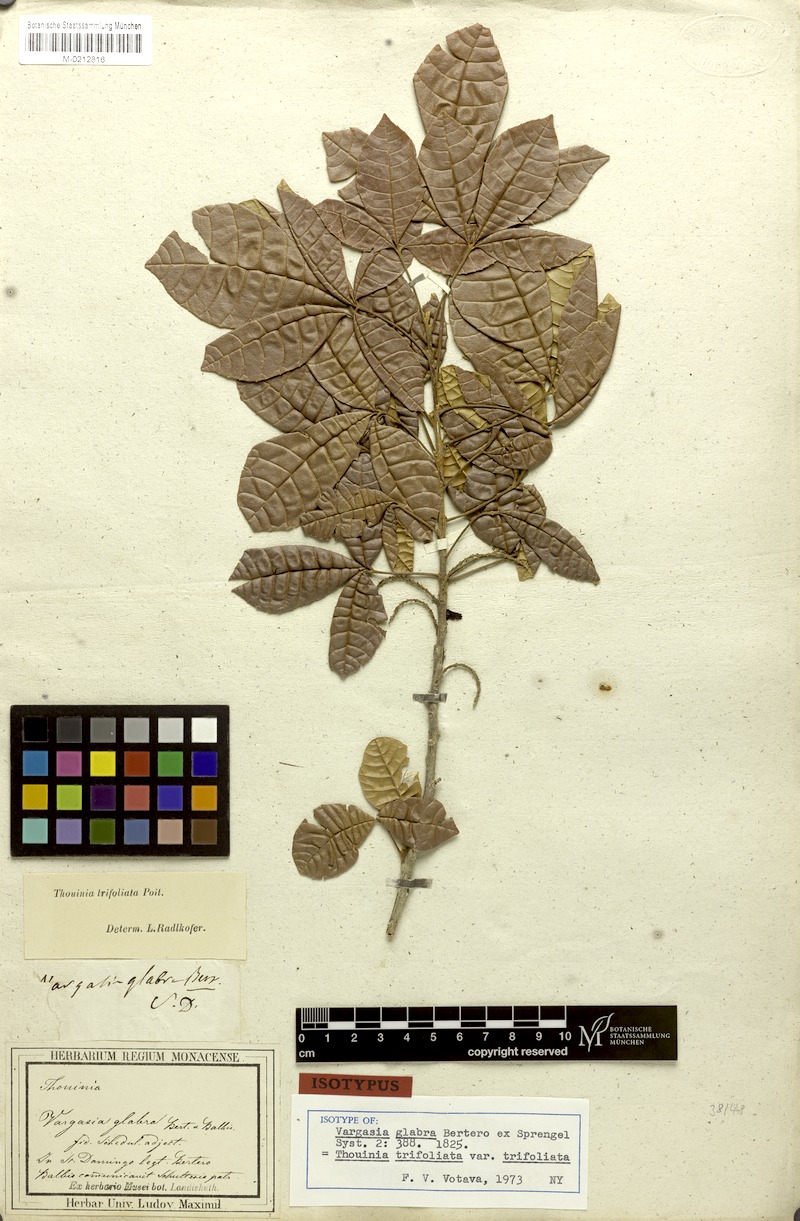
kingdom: Plantae
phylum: Tracheophyta
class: Magnoliopsida
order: Sapindales
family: Sapindaceae
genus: Thouinia
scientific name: Thouinia trifoliata
